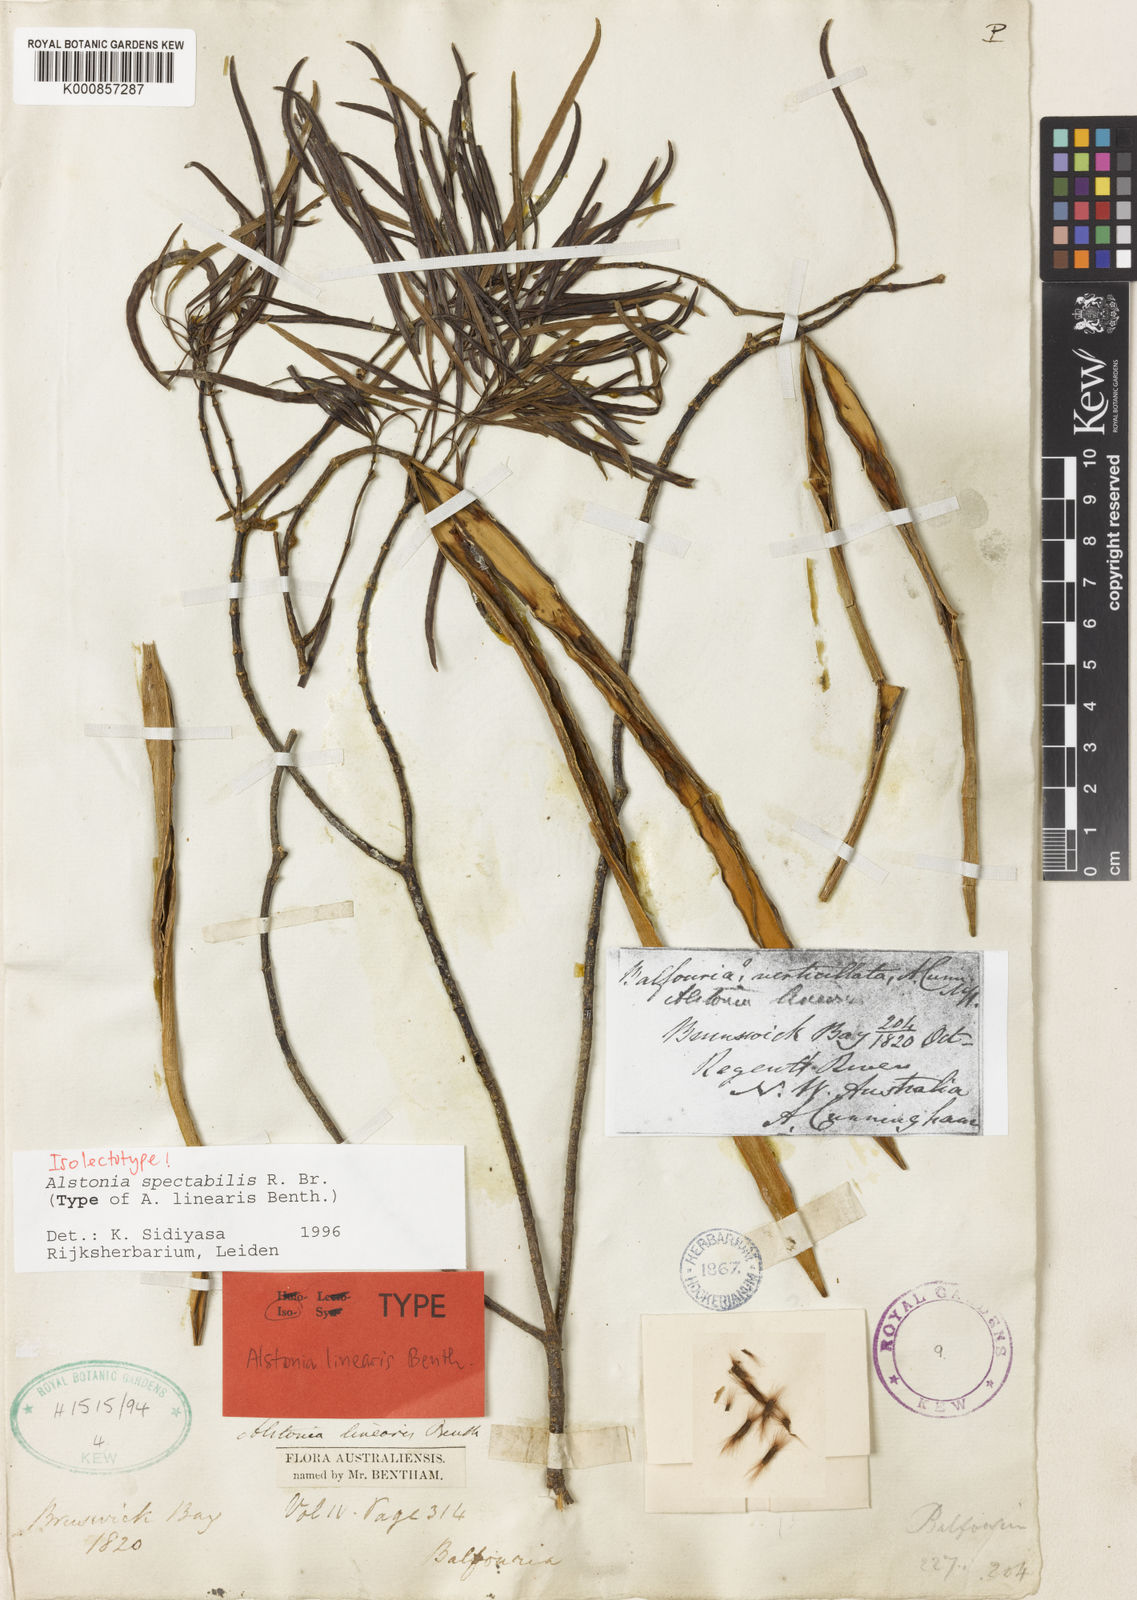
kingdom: Plantae
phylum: Tracheophyta
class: Magnoliopsida
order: Gentianales
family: Apocynaceae
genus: Alstonia
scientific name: Alstonia spectabilis
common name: Milky yellowwood
